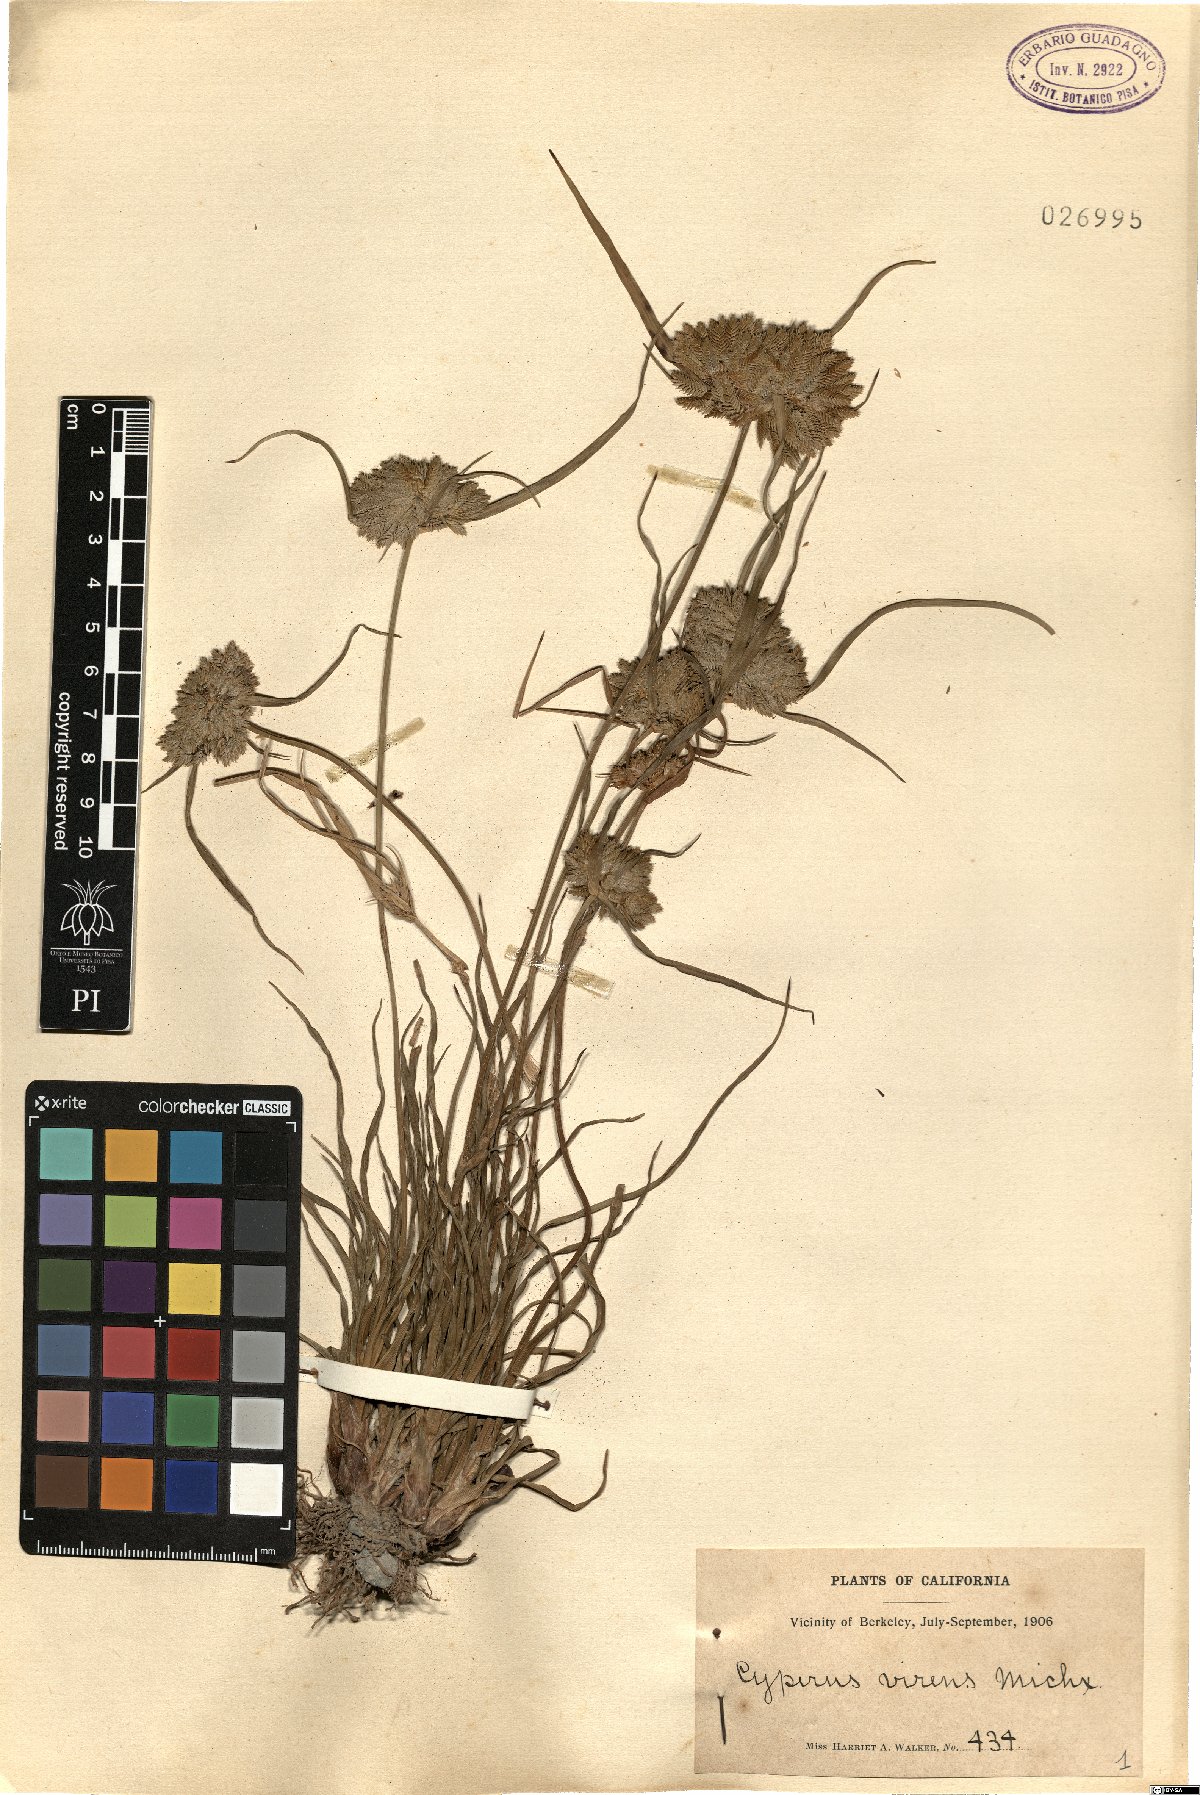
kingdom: Plantae
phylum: Tracheophyta
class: Liliopsida
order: Poales
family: Cyperaceae
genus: Cyperus
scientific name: Cyperus virens
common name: Green flatsedge
